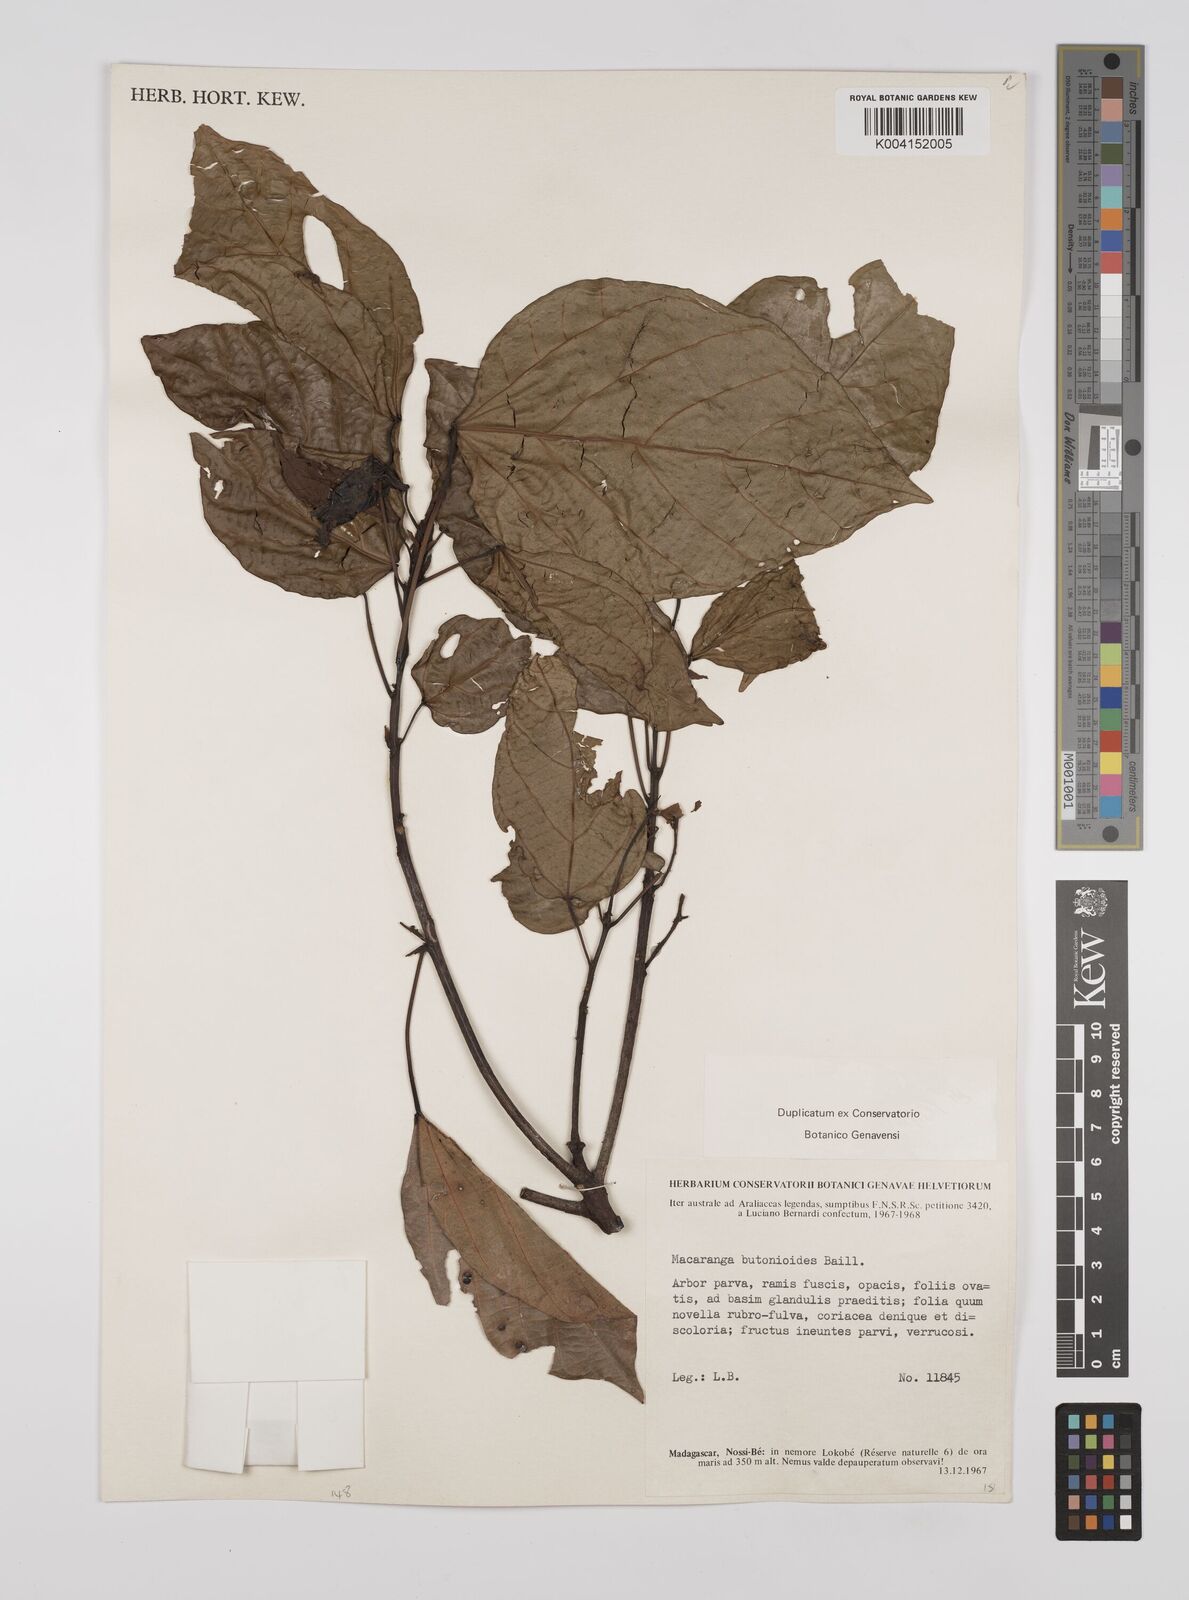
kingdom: Plantae
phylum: Tracheophyta
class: Magnoliopsida
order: Malpighiales
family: Euphorbiaceae
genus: Macaranga
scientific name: Macaranga
